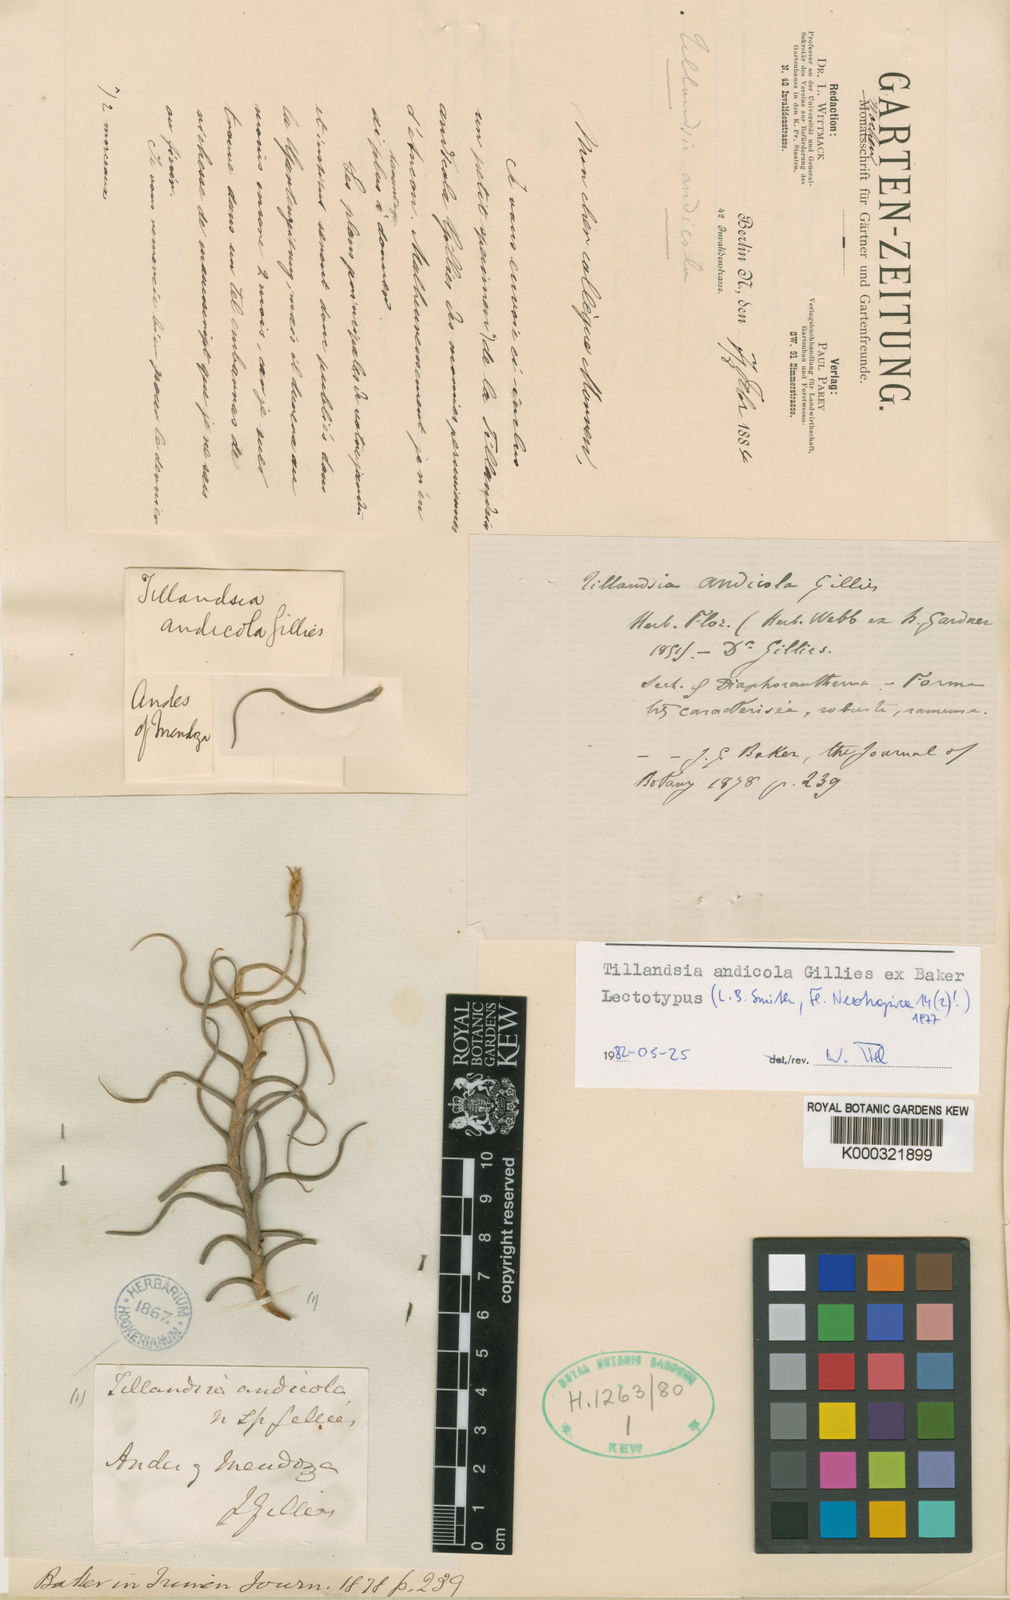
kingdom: Plantae
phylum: Tracheophyta
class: Liliopsida
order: Poales
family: Bromeliaceae
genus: Tillandsia
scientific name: Tillandsia andicola
